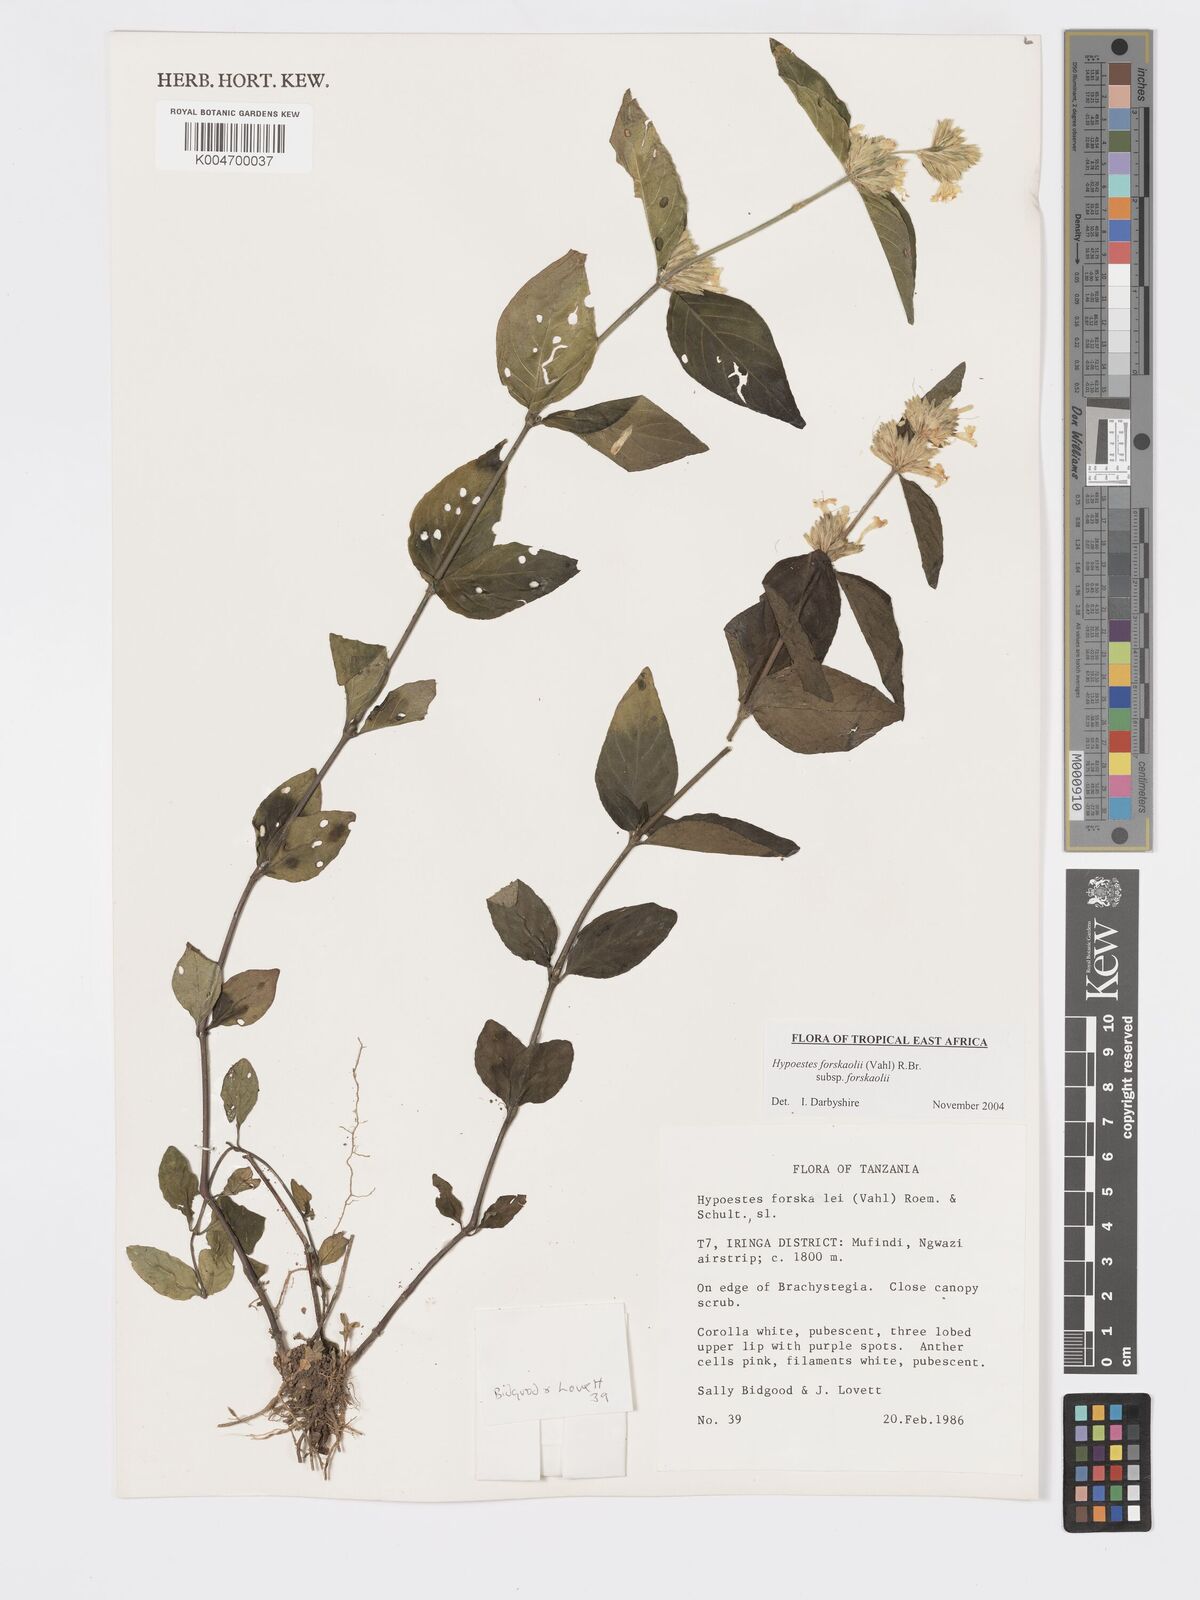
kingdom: Plantae
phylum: Tracheophyta
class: Magnoliopsida
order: Lamiales
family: Acanthaceae
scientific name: Acanthaceae
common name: Acanthaceae
